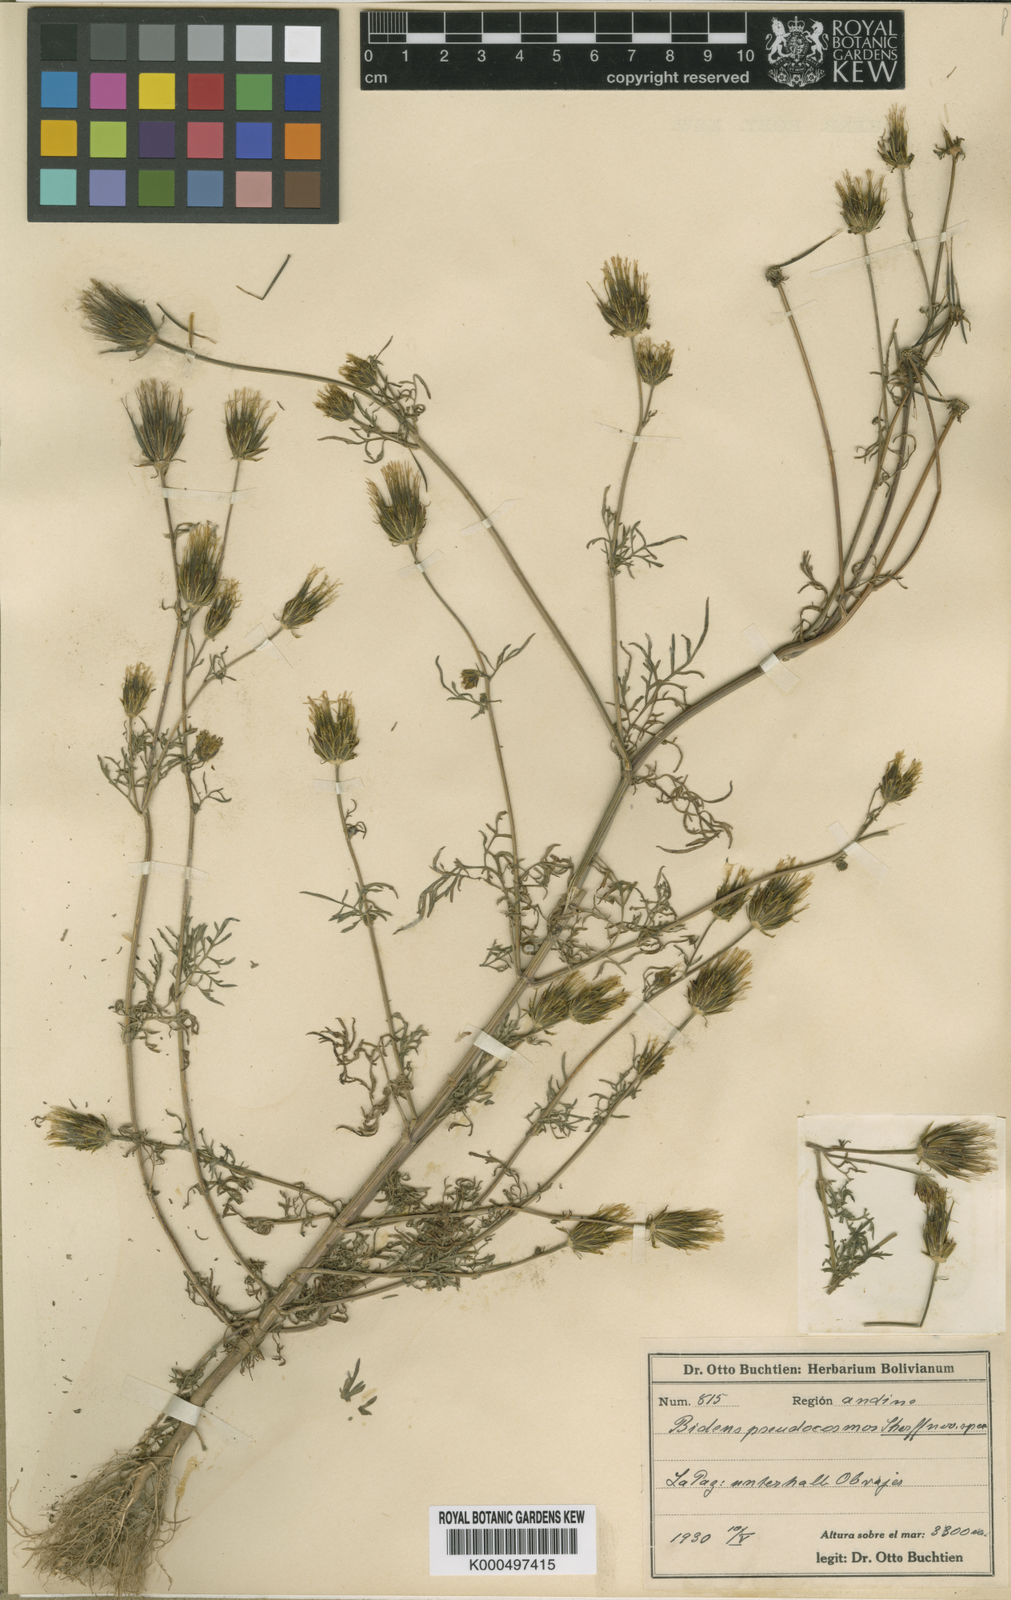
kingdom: Plantae
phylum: Tracheophyta
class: Magnoliopsida
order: Asterales
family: Asteraceae
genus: Bidens
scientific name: Bidens pseudocosmos
